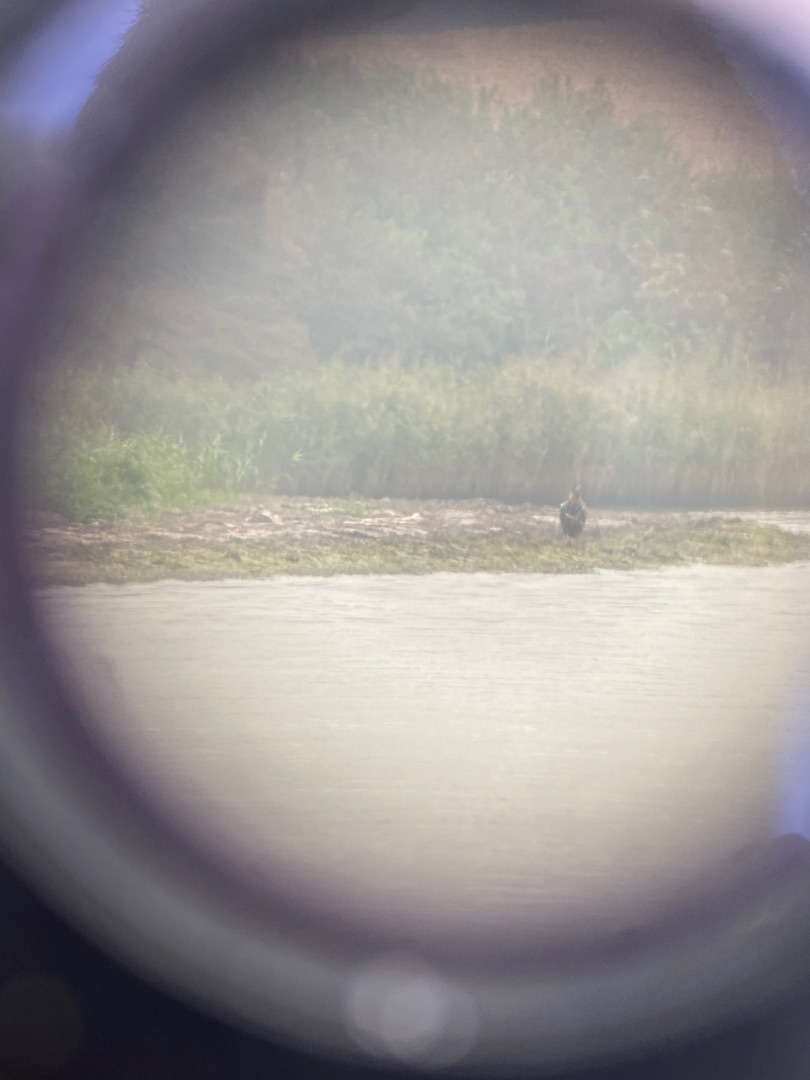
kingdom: Animalia
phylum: Chordata
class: Aves
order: Accipitriformes
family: Accipitridae
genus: Haliaeetus
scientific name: Haliaeetus albicilla
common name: Havørn
